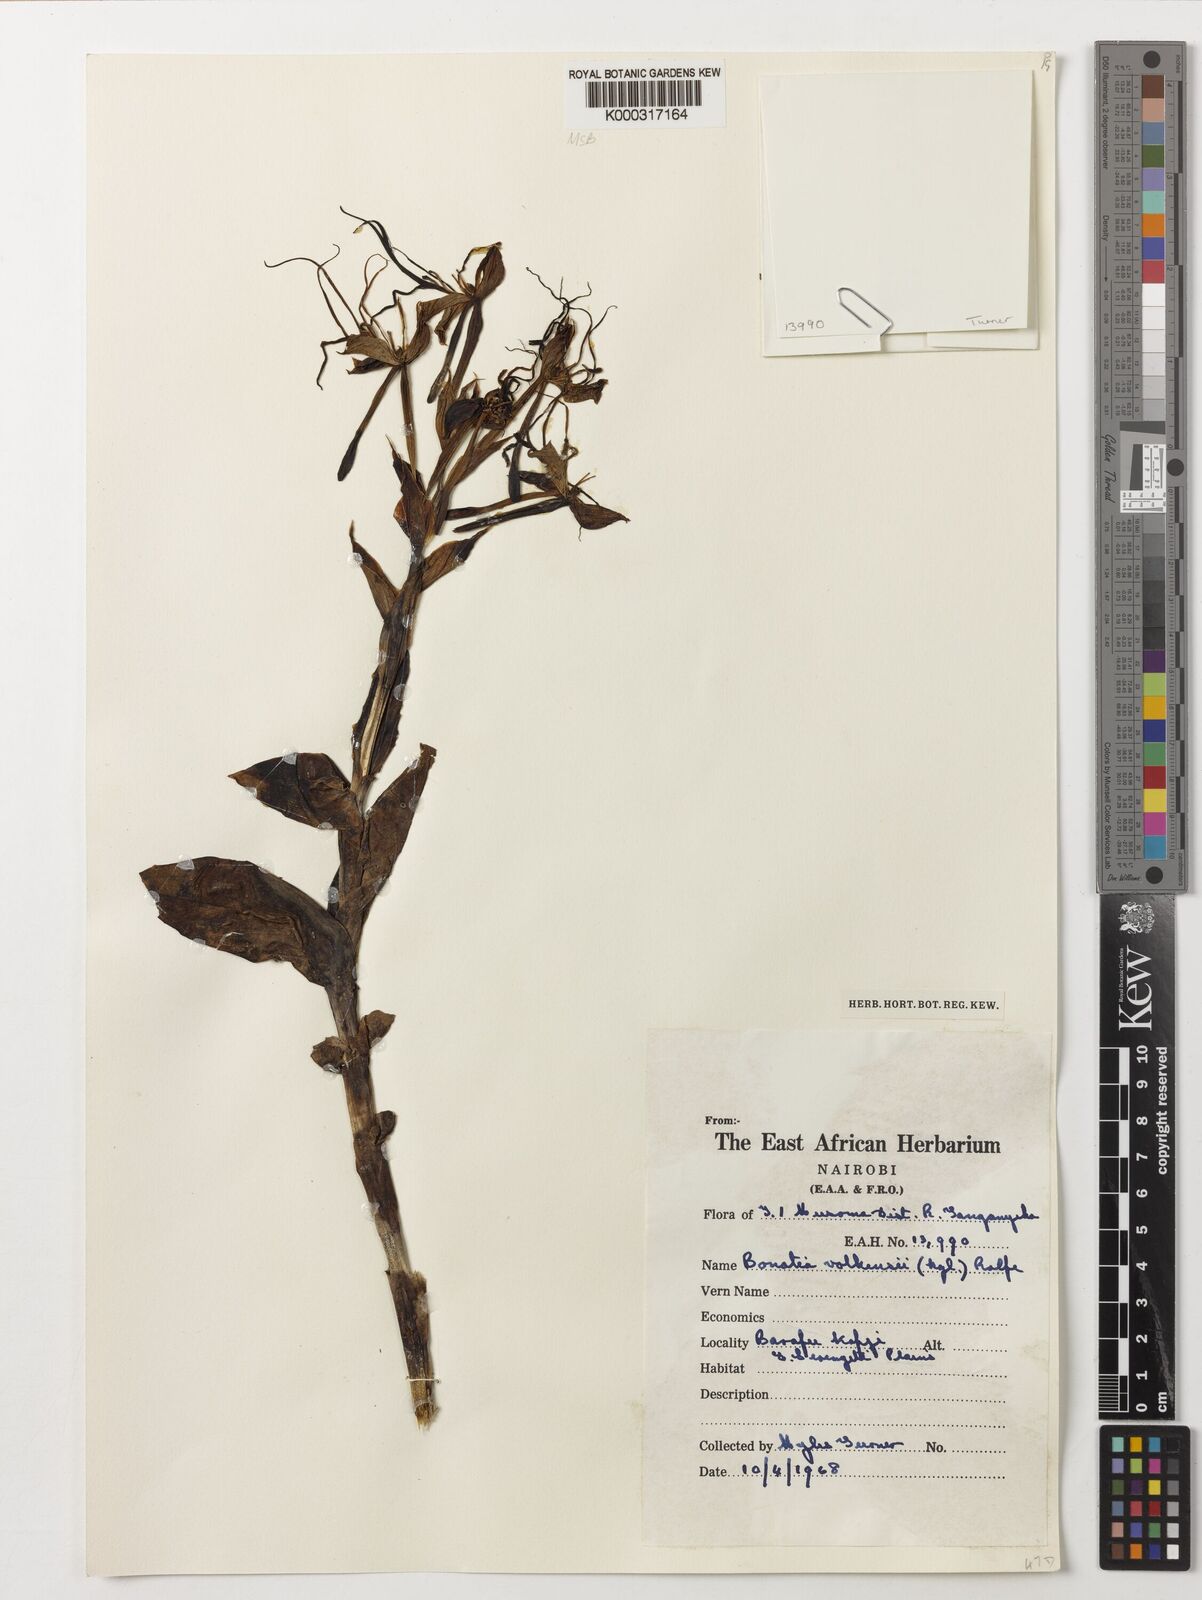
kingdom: Plantae
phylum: Tracheophyta
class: Liliopsida
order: Asparagales
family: Orchidaceae
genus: Bonatea
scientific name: Bonatea volkensiana
